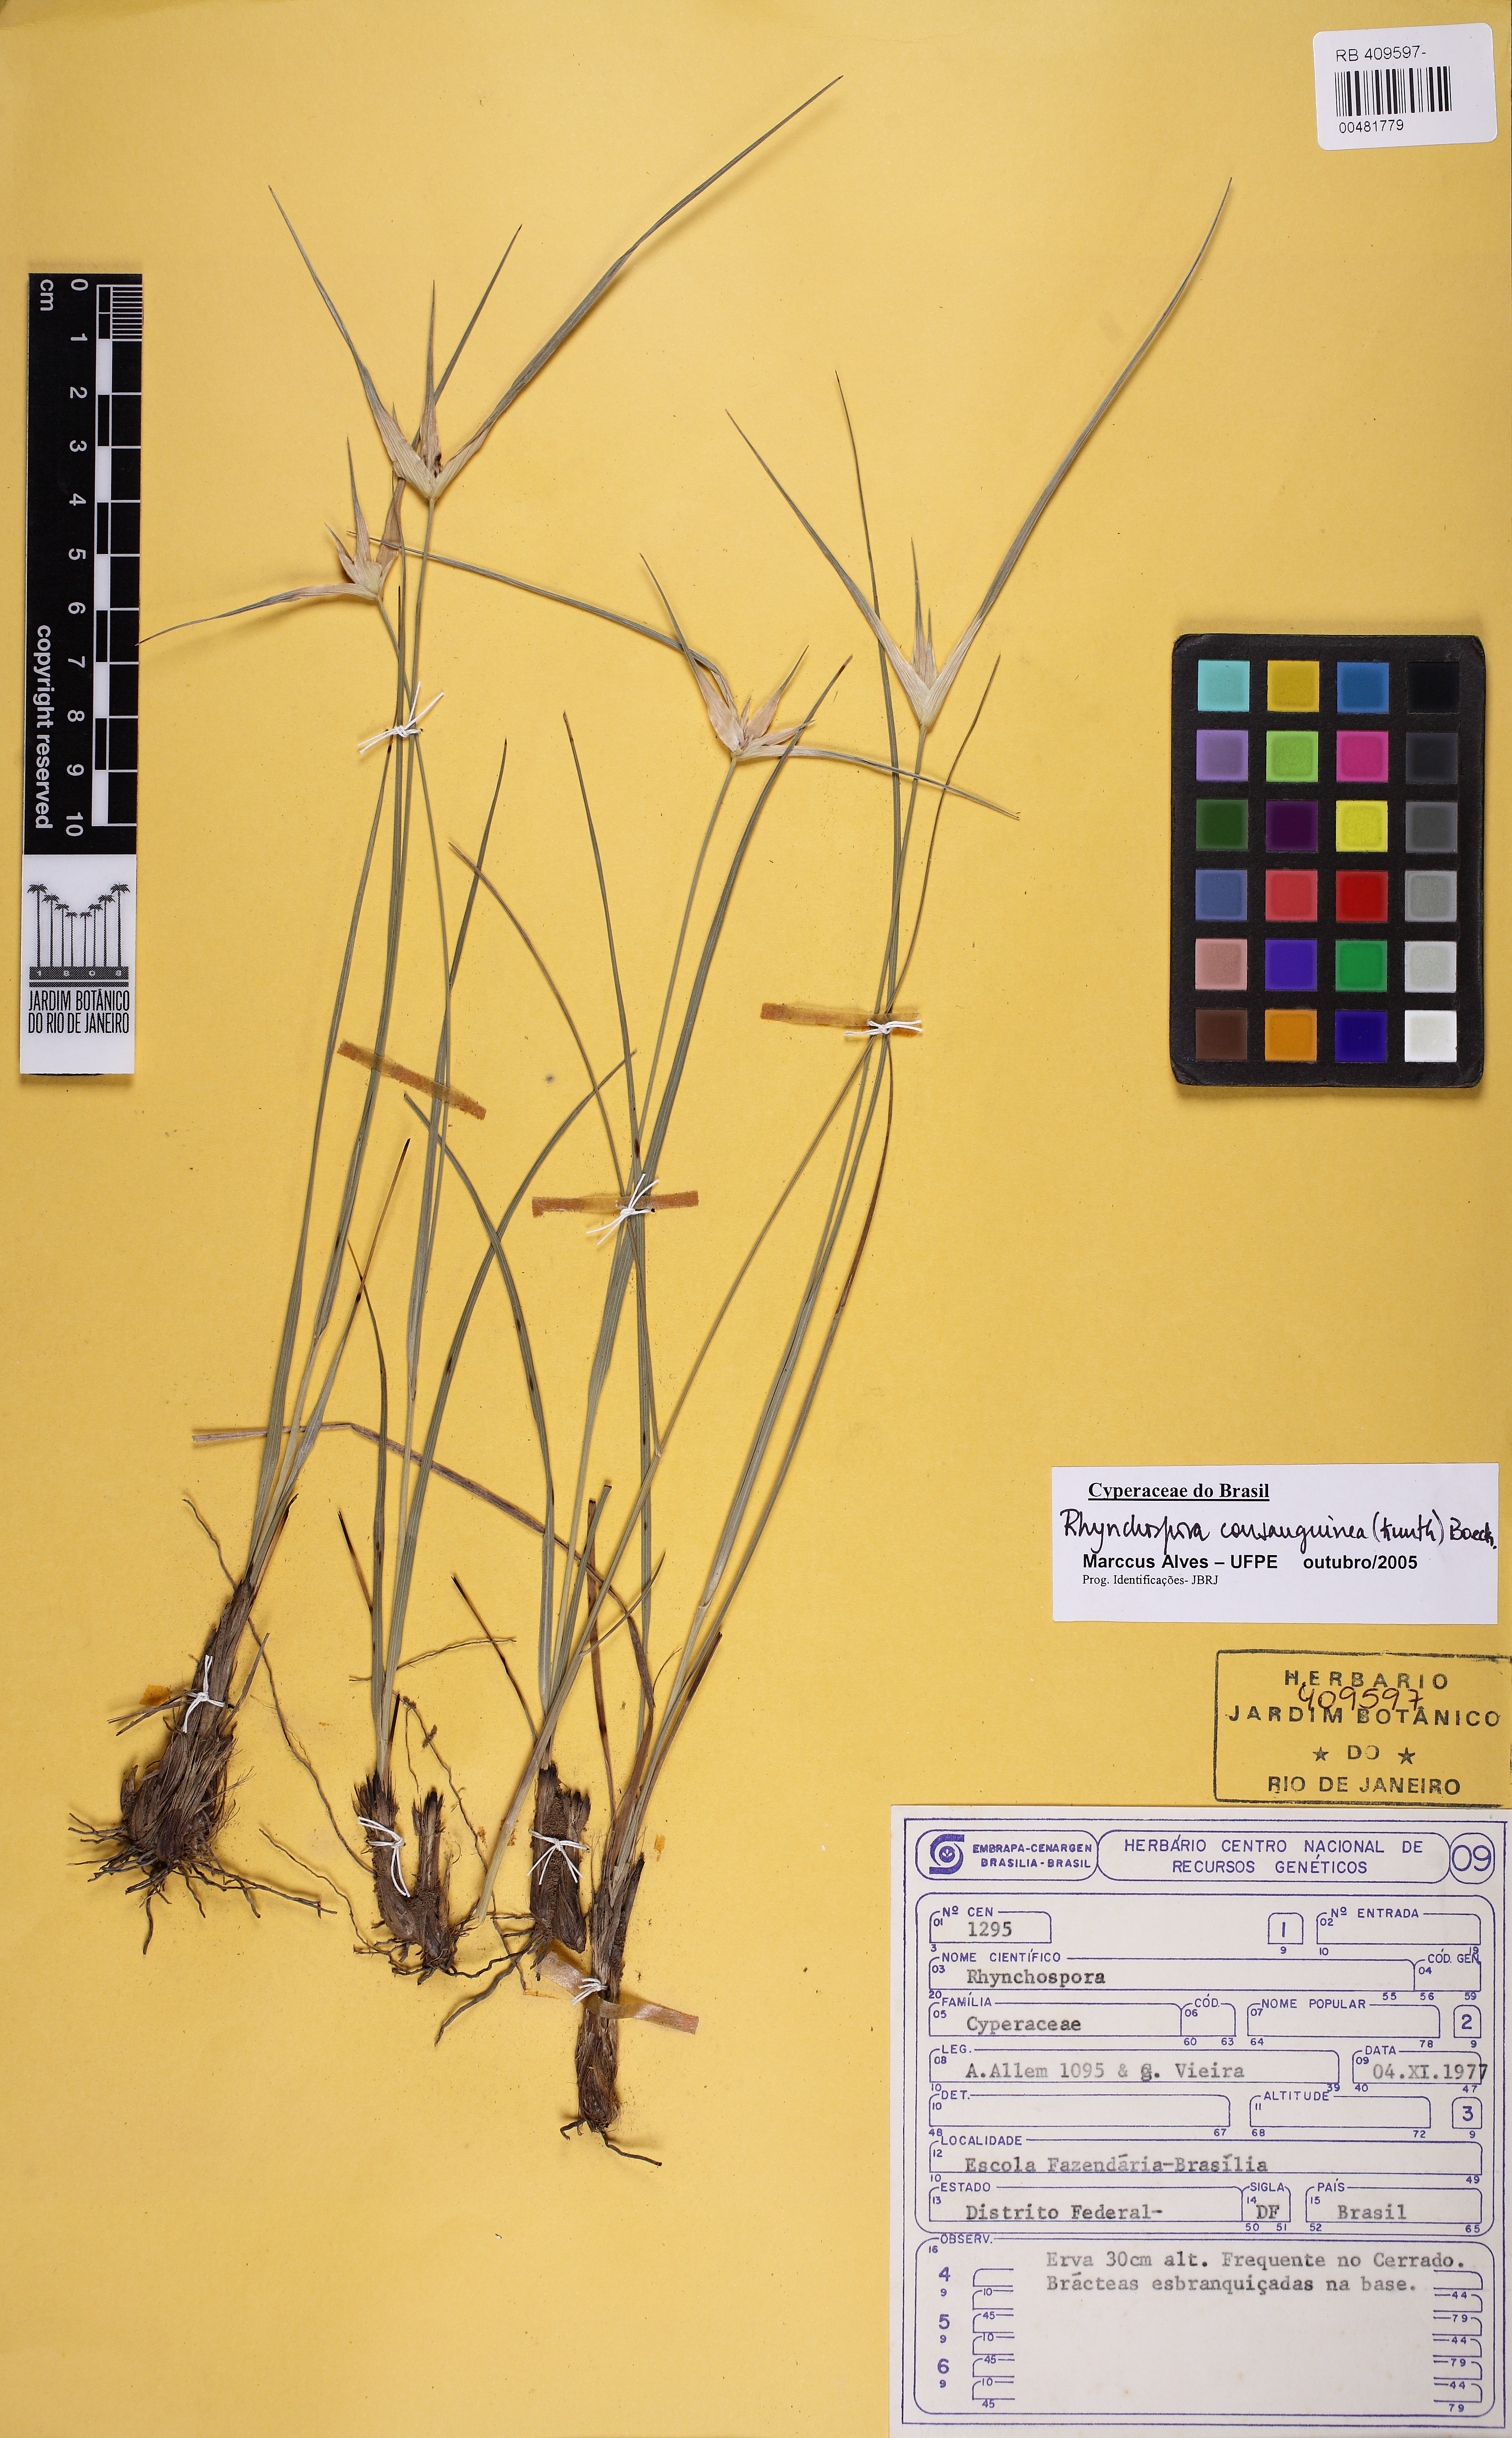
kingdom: Plantae
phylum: Tracheophyta
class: Liliopsida
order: Poales
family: Cyperaceae
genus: Rhynchospora
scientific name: Rhynchospora consanguinea
